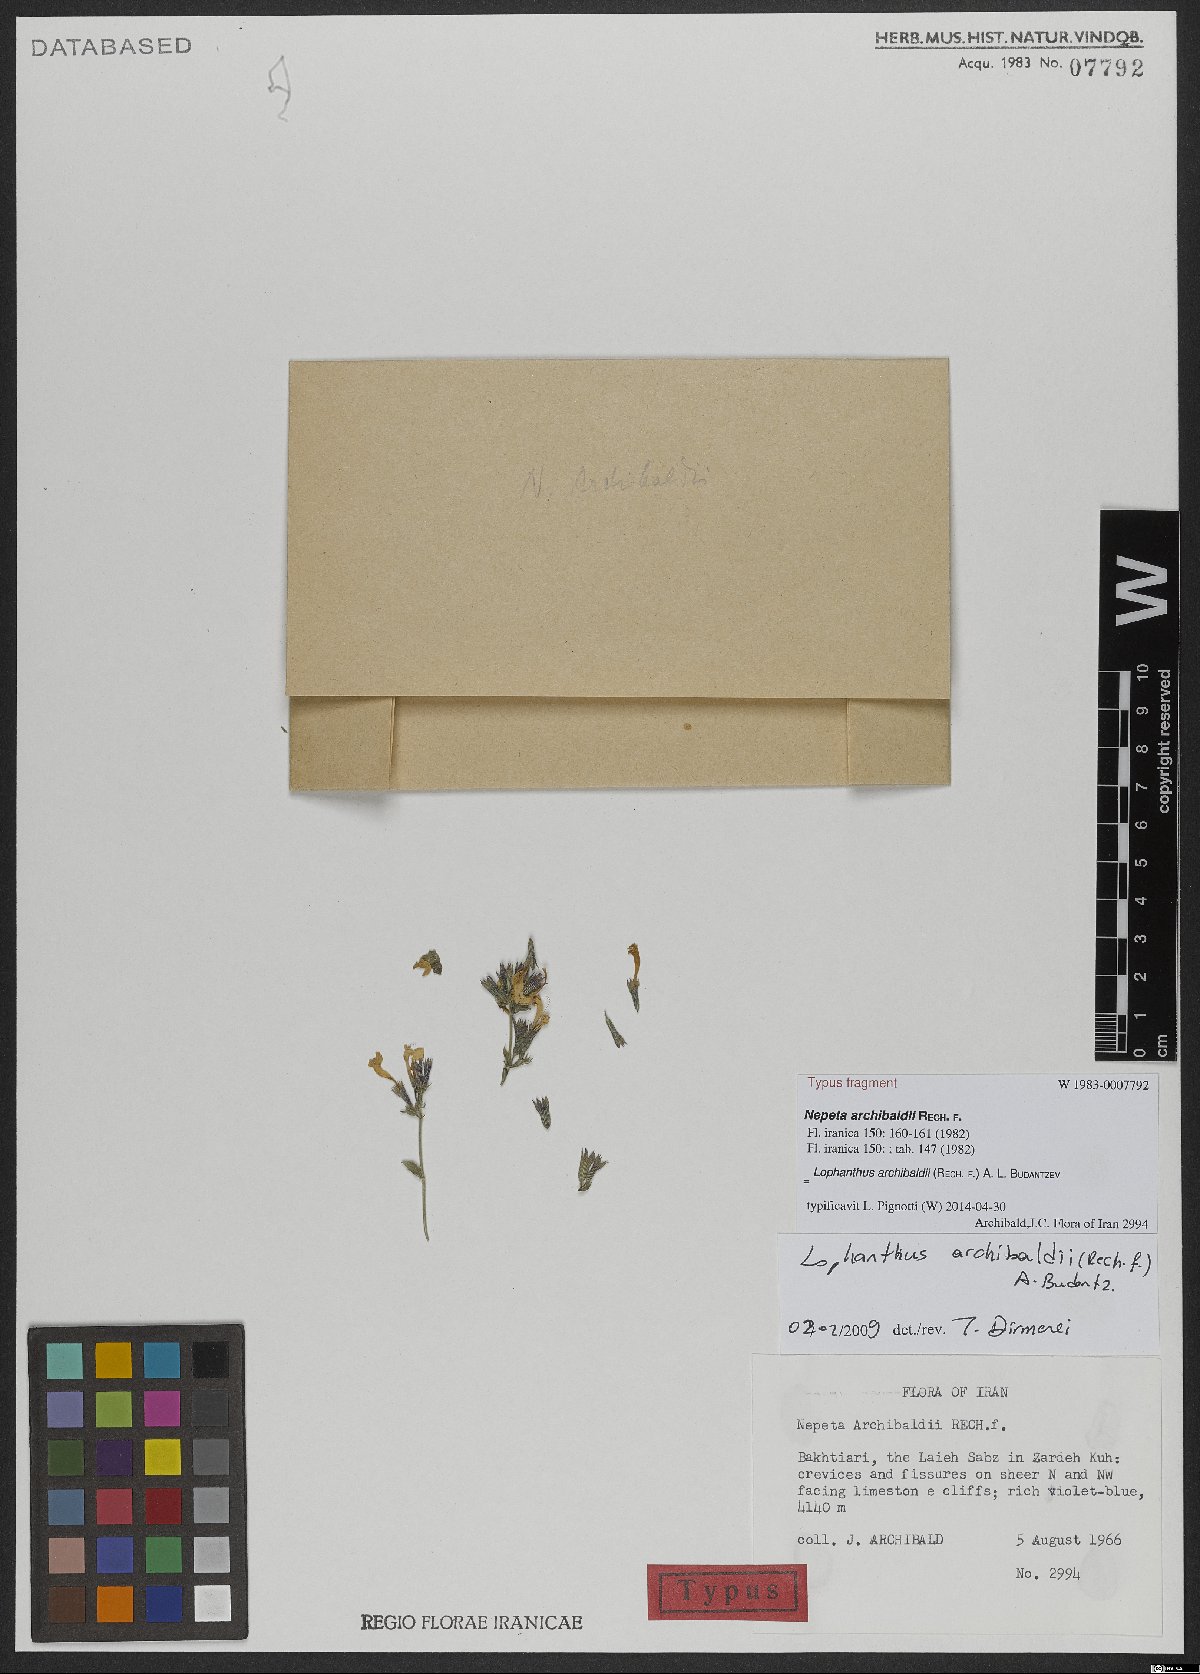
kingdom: Plantae
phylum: Tracheophyta
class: Magnoliopsida
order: Lamiales
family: Lamiaceae
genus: Nepeta
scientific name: Nepeta archibaldii
